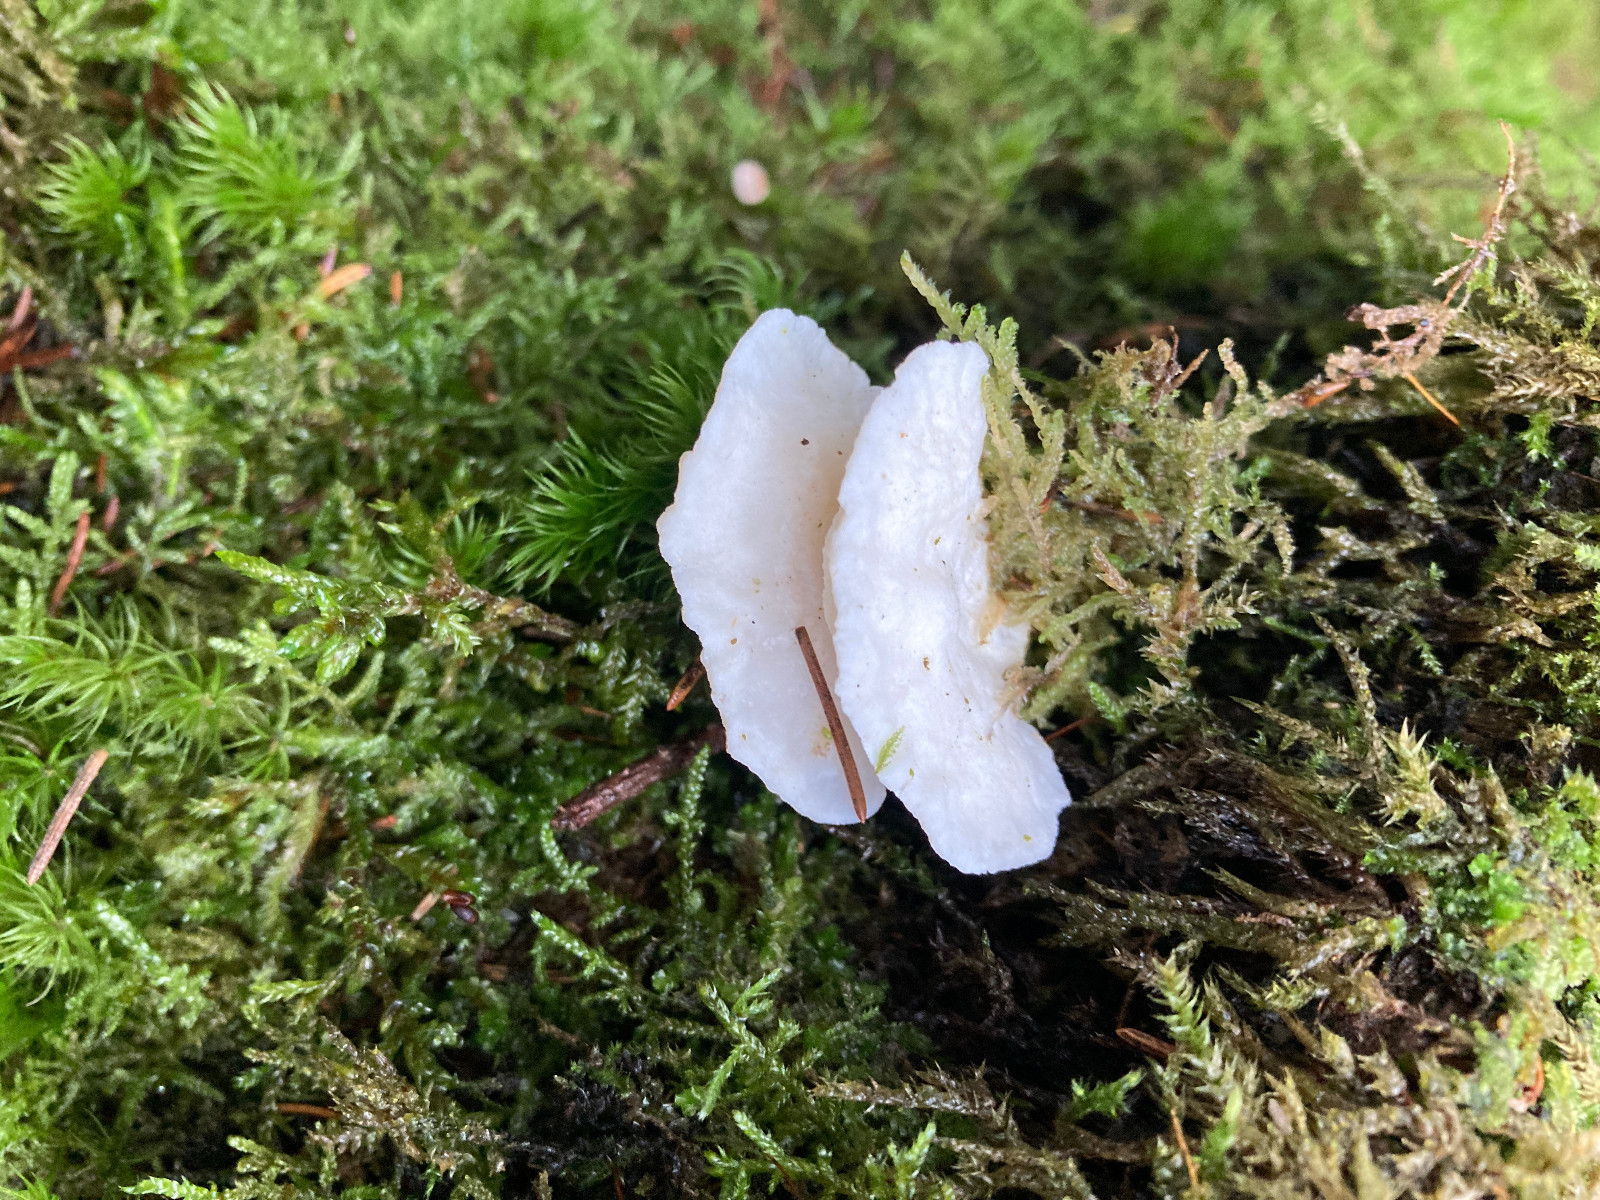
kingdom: Fungi
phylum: Basidiomycota
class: Agaricomycetes
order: Polyporales
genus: Amaropostia
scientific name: Amaropostia stiptica
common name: bitter kødporesvamp
